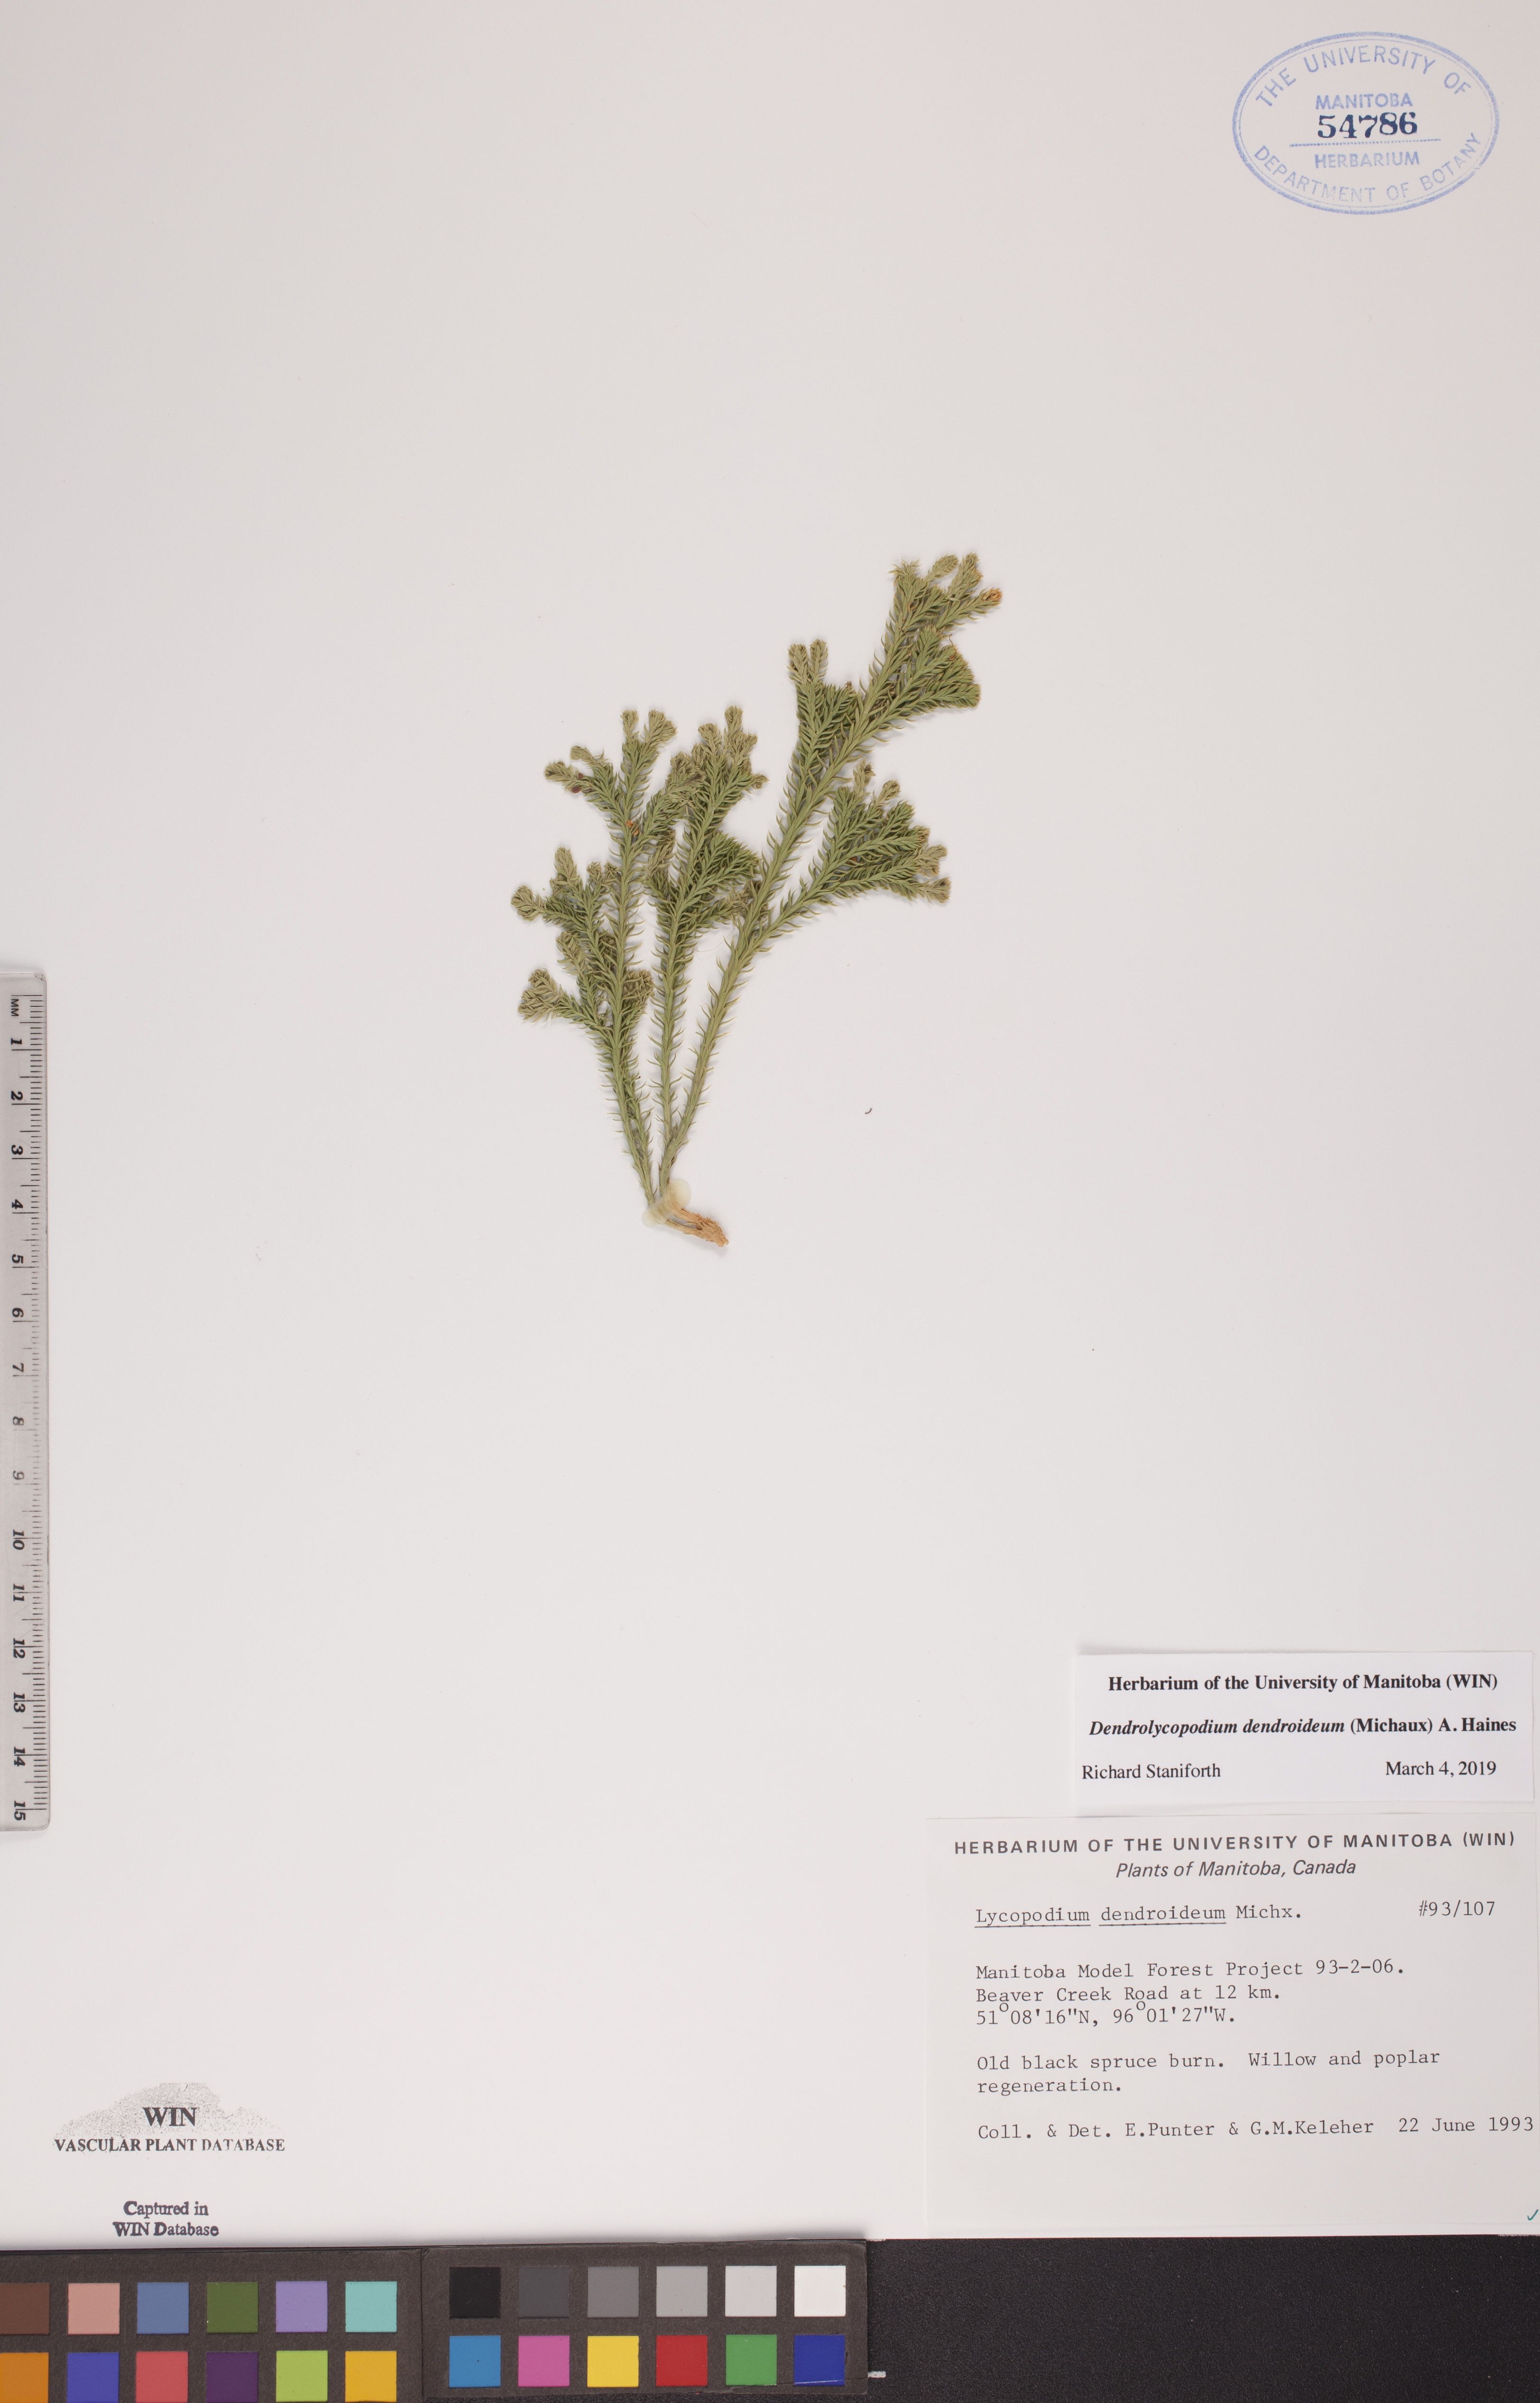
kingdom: Plantae
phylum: Tracheophyta
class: Lycopodiopsida
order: Lycopodiales
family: Lycopodiaceae
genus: Dendrolycopodium
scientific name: Dendrolycopodium dendroideum
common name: Northern tree-clubmoss
